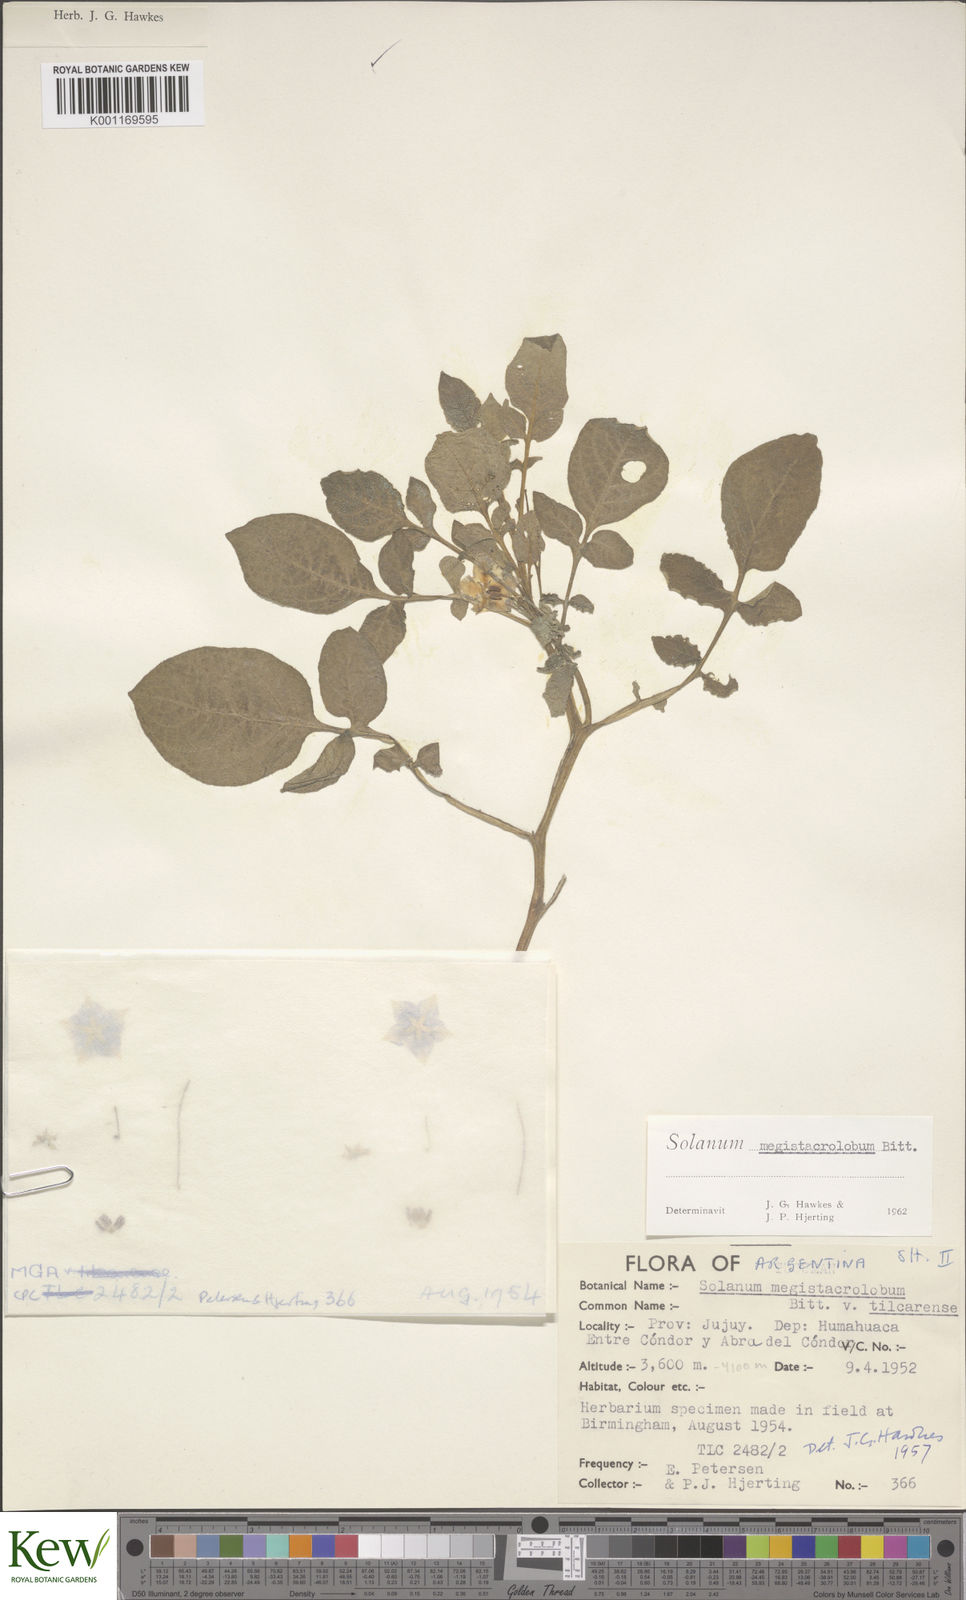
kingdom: Plantae
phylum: Tracheophyta
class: Magnoliopsida
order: Solanales
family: Solanaceae
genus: Solanum
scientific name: Solanum boliviense
